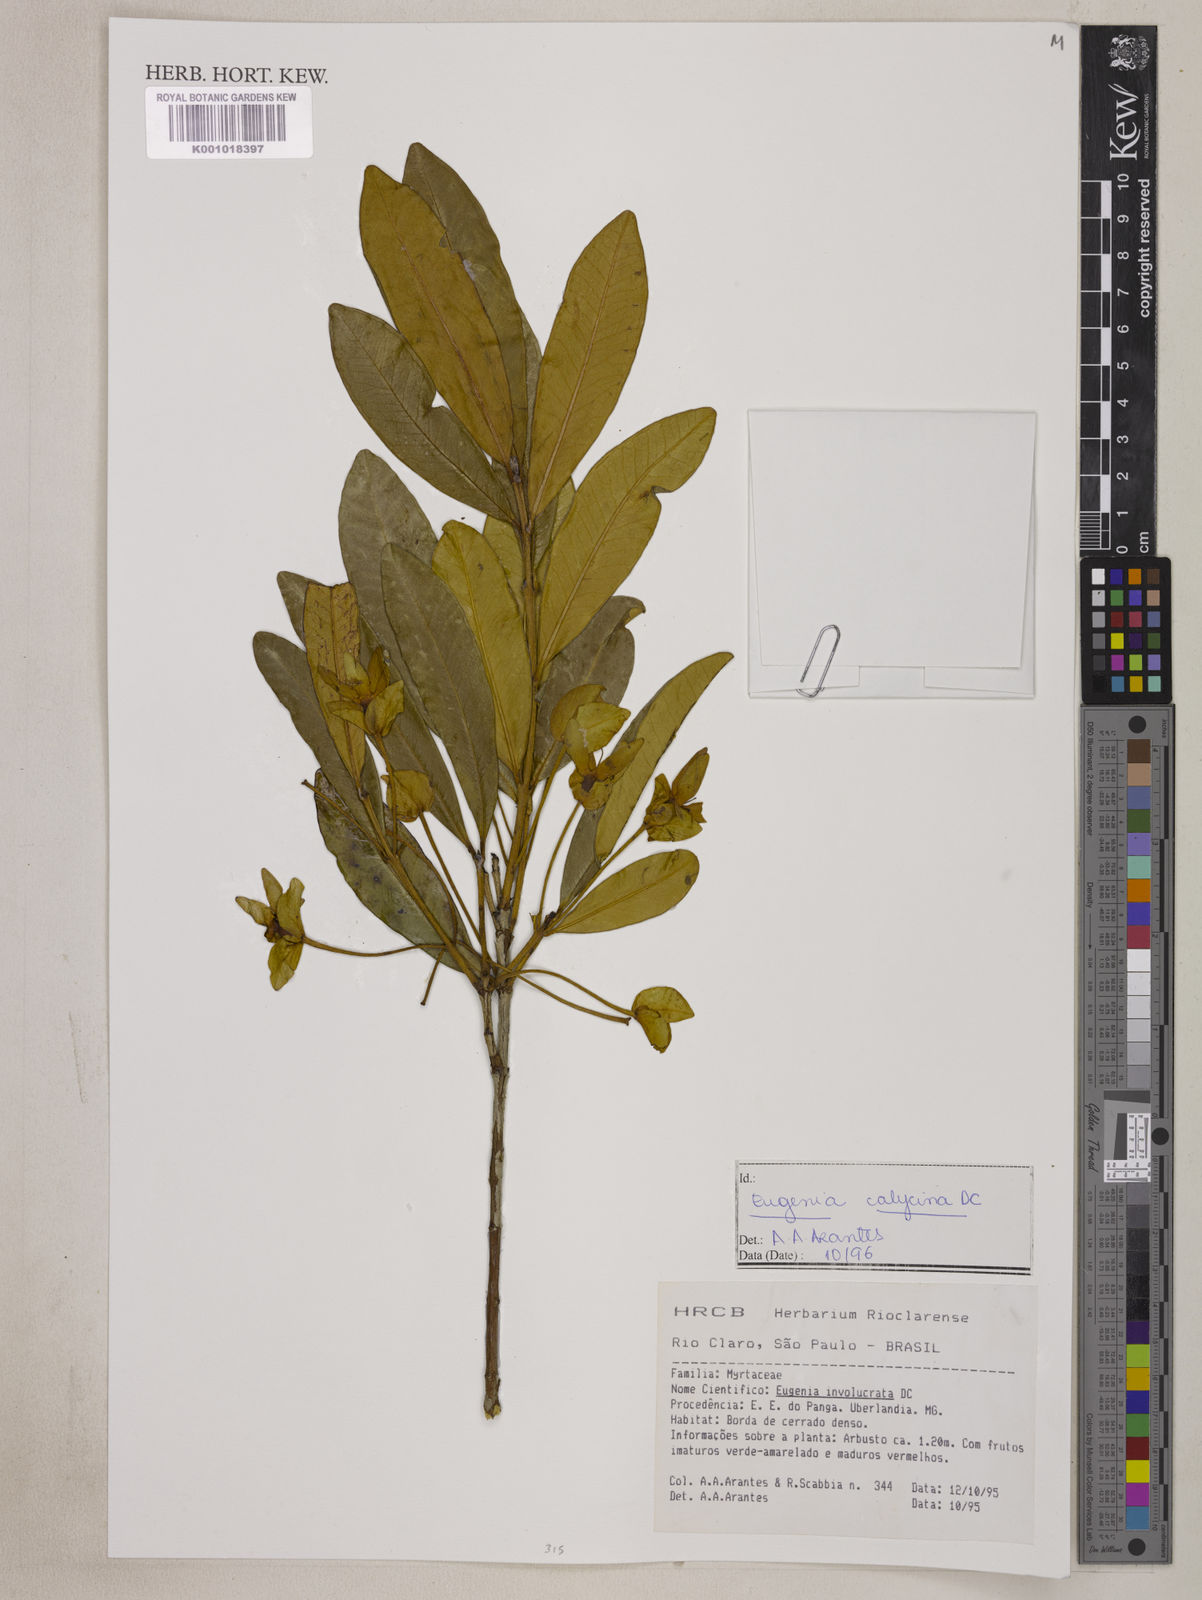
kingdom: Plantae
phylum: Tracheophyta
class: Magnoliopsida
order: Myrtales
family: Myrtaceae
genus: Eugenia
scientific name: Eugenia calycina
